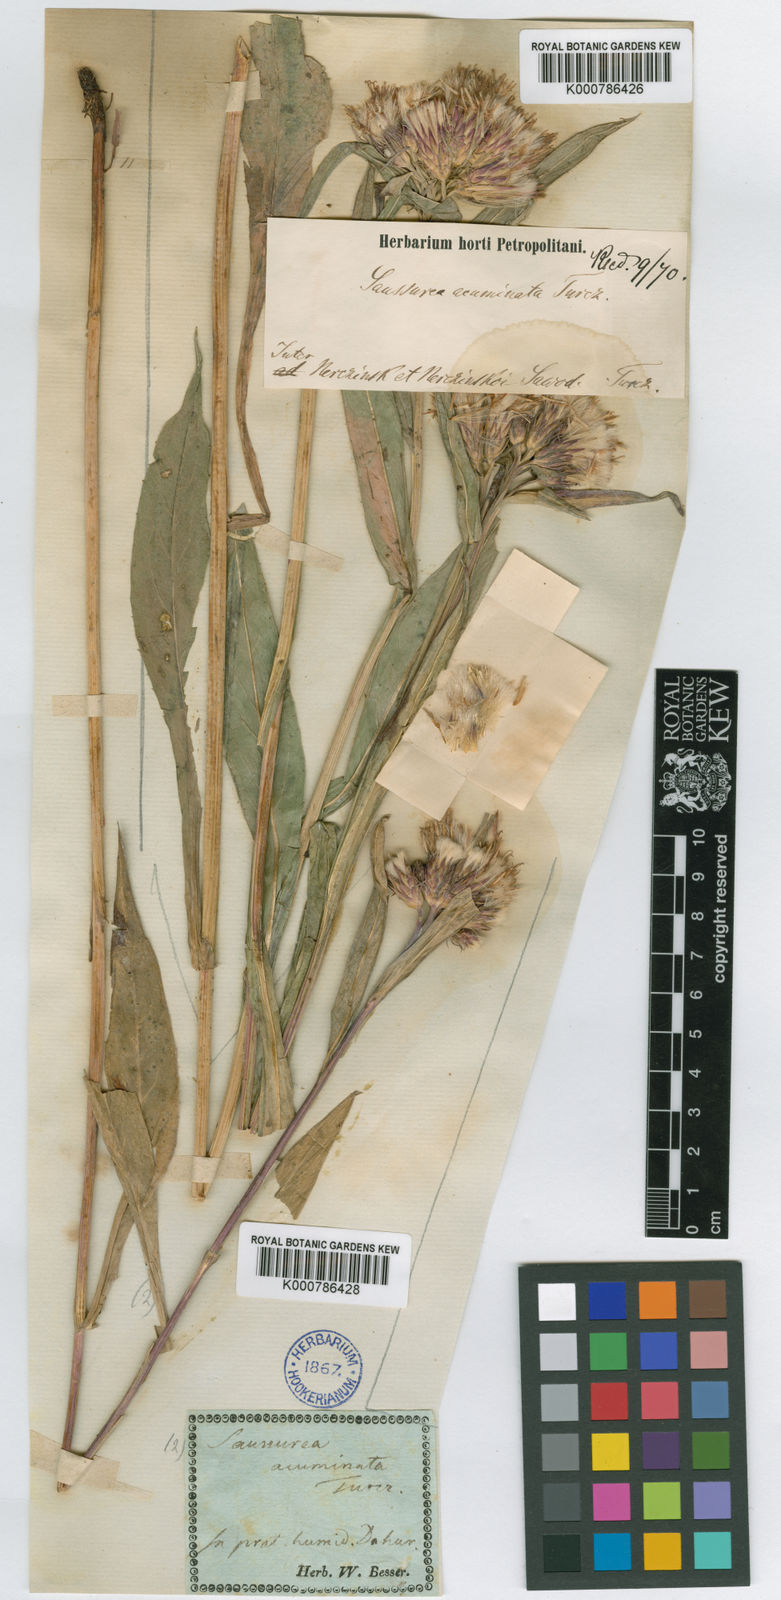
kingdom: Plantae
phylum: Tracheophyta
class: Magnoliopsida
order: Asterales
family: Asteraceae
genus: Saussurea
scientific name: Saussurea acuminata
